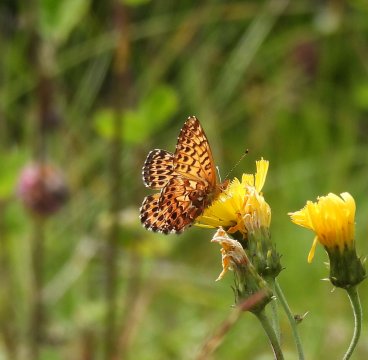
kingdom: Animalia
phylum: Arthropoda
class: Insecta
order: Lepidoptera
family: Nymphalidae
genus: Boloria
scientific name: Boloria chariclea
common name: Arctic Fritillary
